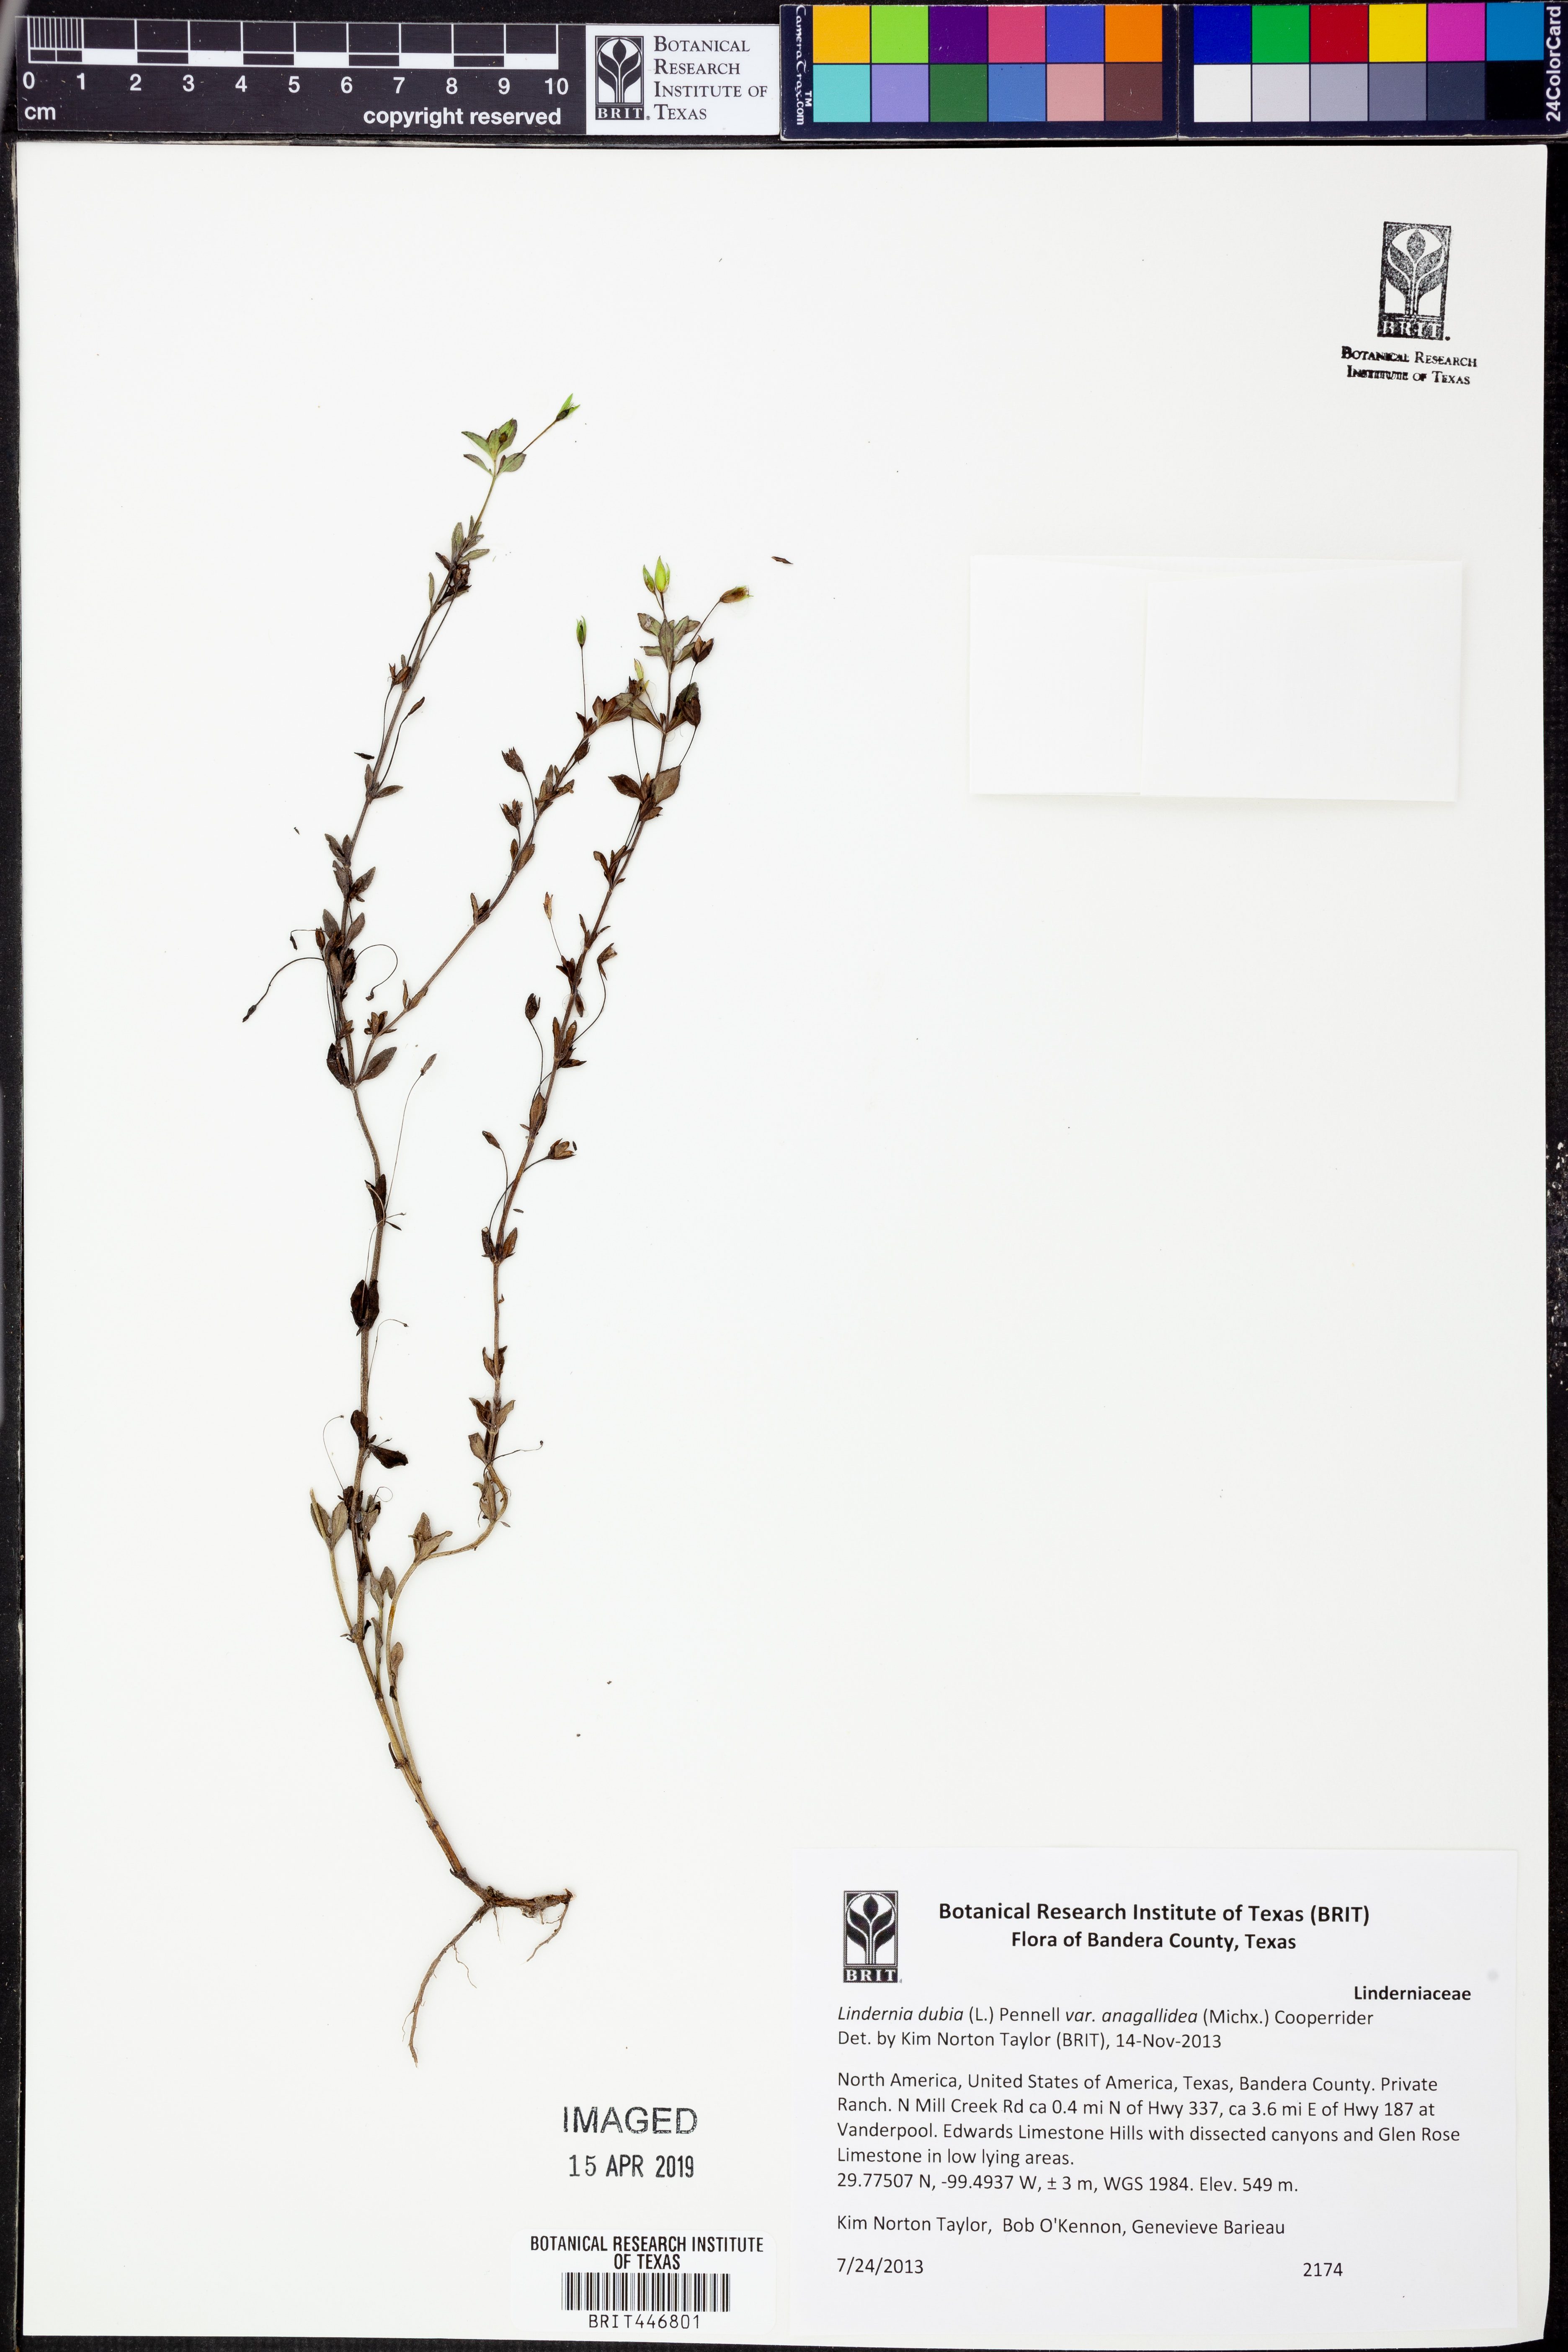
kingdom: Plantae
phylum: Tracheophyta
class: Magnoliopsida
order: Lamiales
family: Linderniaceae
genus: Lindernia
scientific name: Lindernia dubia
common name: Annual false pimpernel
